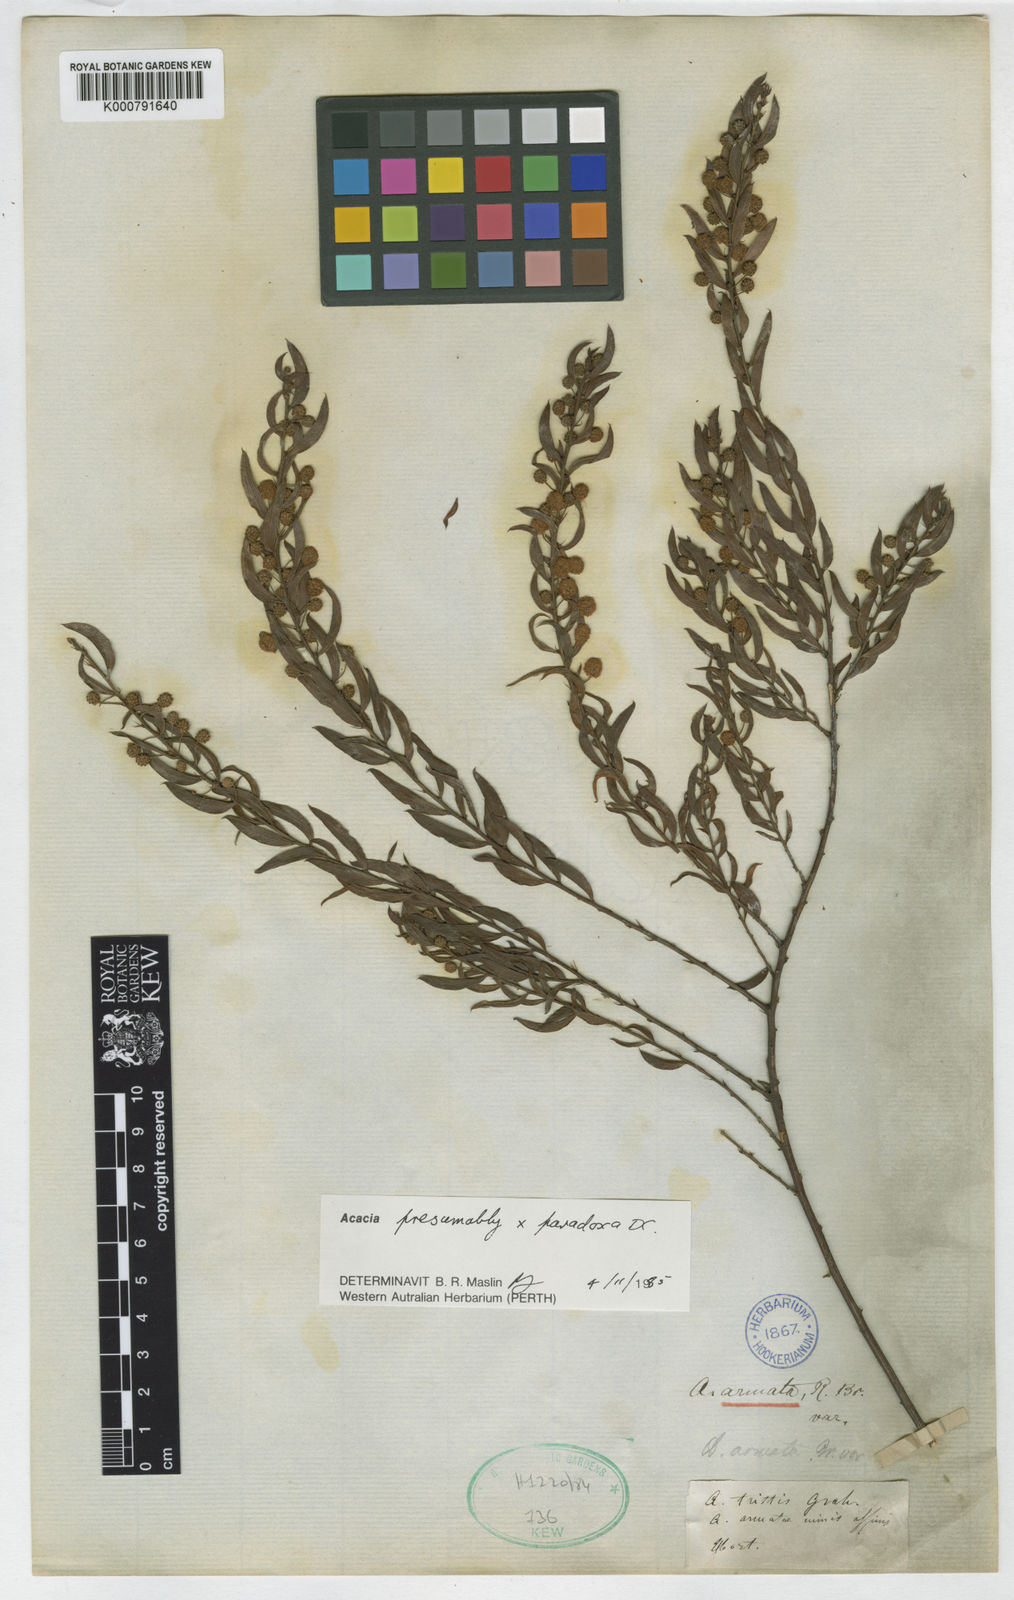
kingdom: Plantae
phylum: Tracheophyta
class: Magnoliopsida
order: Fabales
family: Fabaceae
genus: Acacia
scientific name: Acacia paradoxa
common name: Paradox acacia
